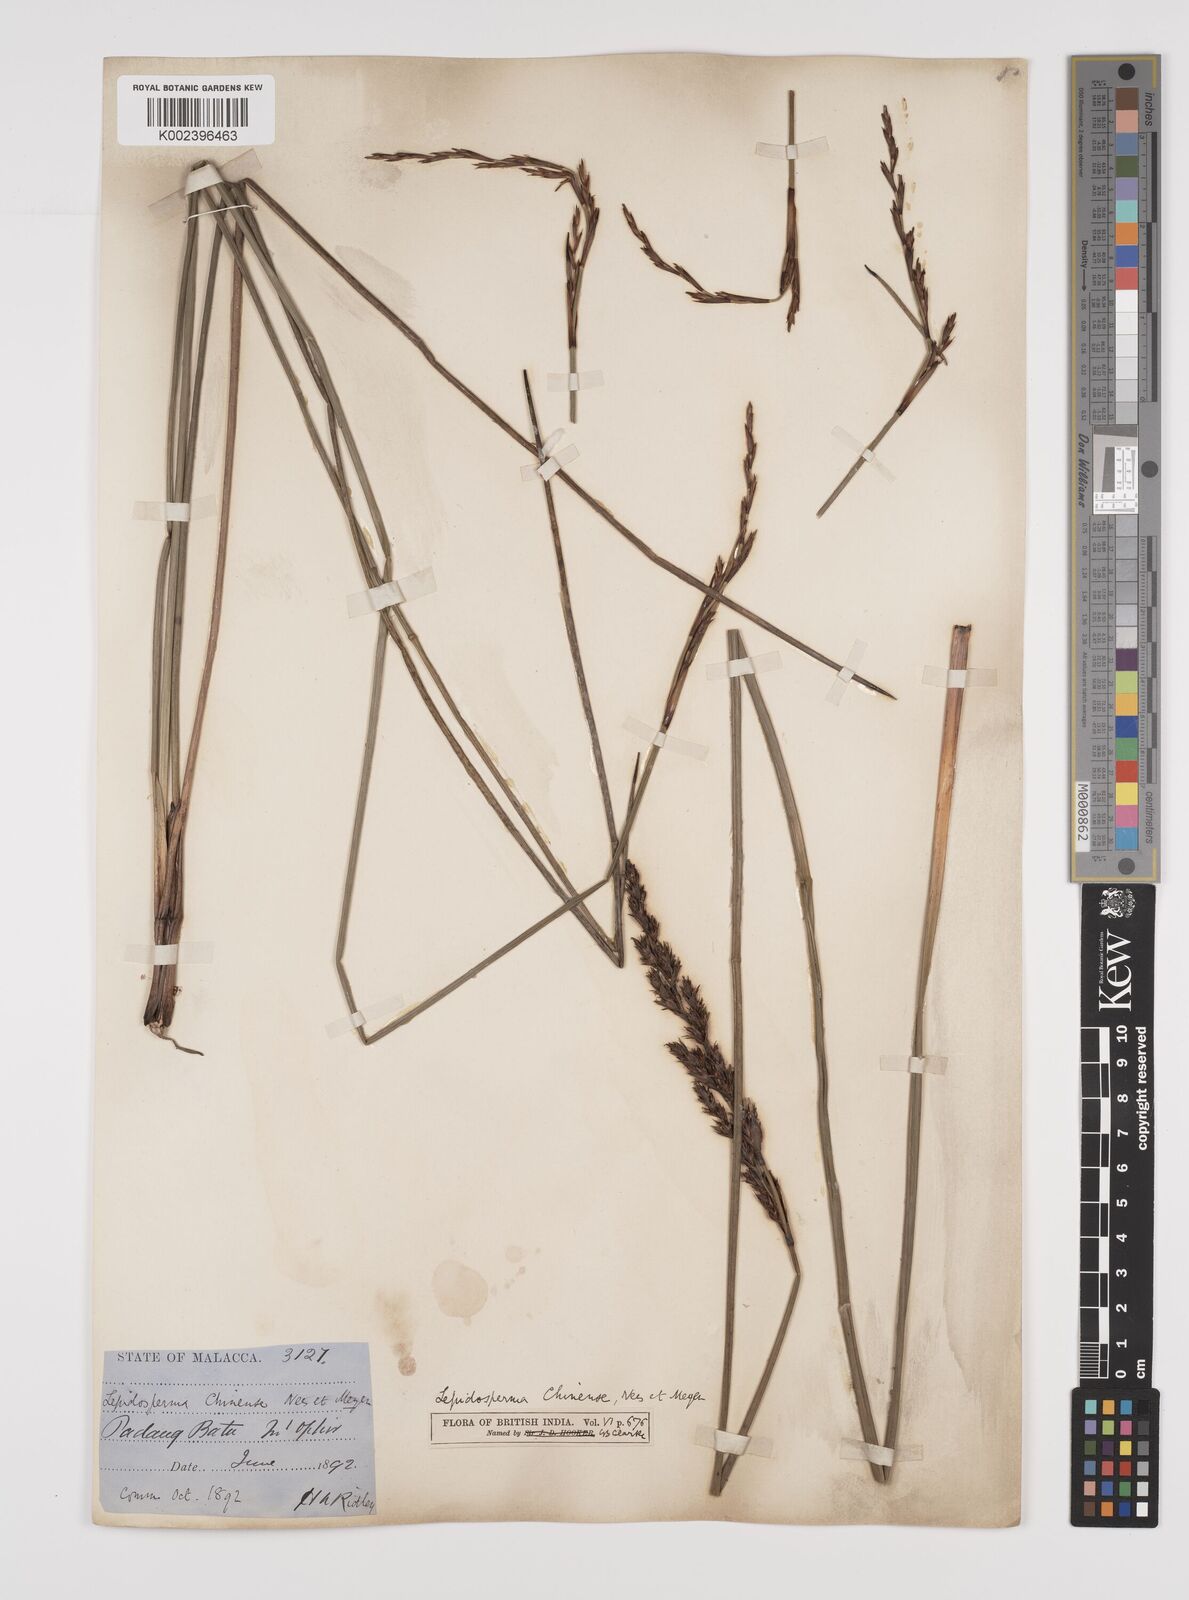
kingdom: Plantae
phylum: Tracheophyta
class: Liliopsida
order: Poales
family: Cyperaceae
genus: Lepidosperma
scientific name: Lepidosperma chinense
